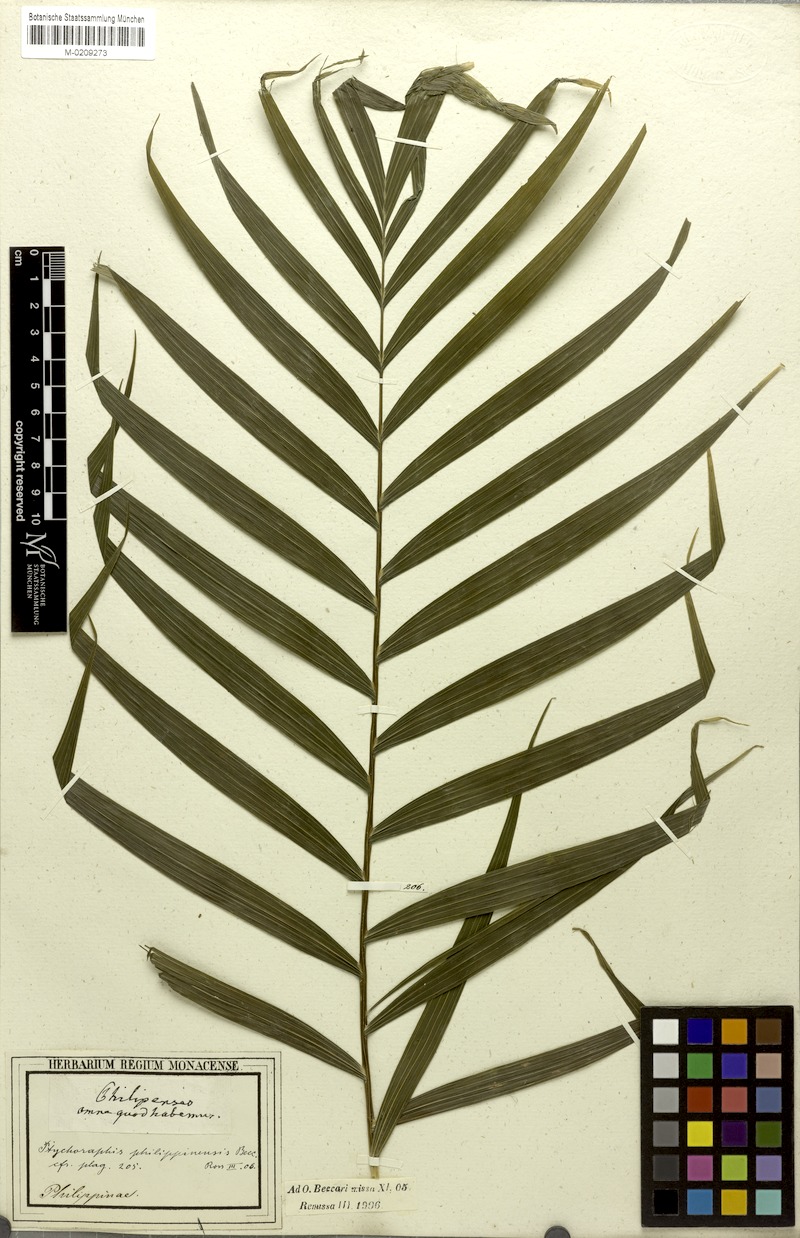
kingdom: Plantae
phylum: Tracheophyta
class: Liliopsida
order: Arecales
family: Arecaceae
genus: Heterospathe
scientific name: Heterospathe philippinensis
